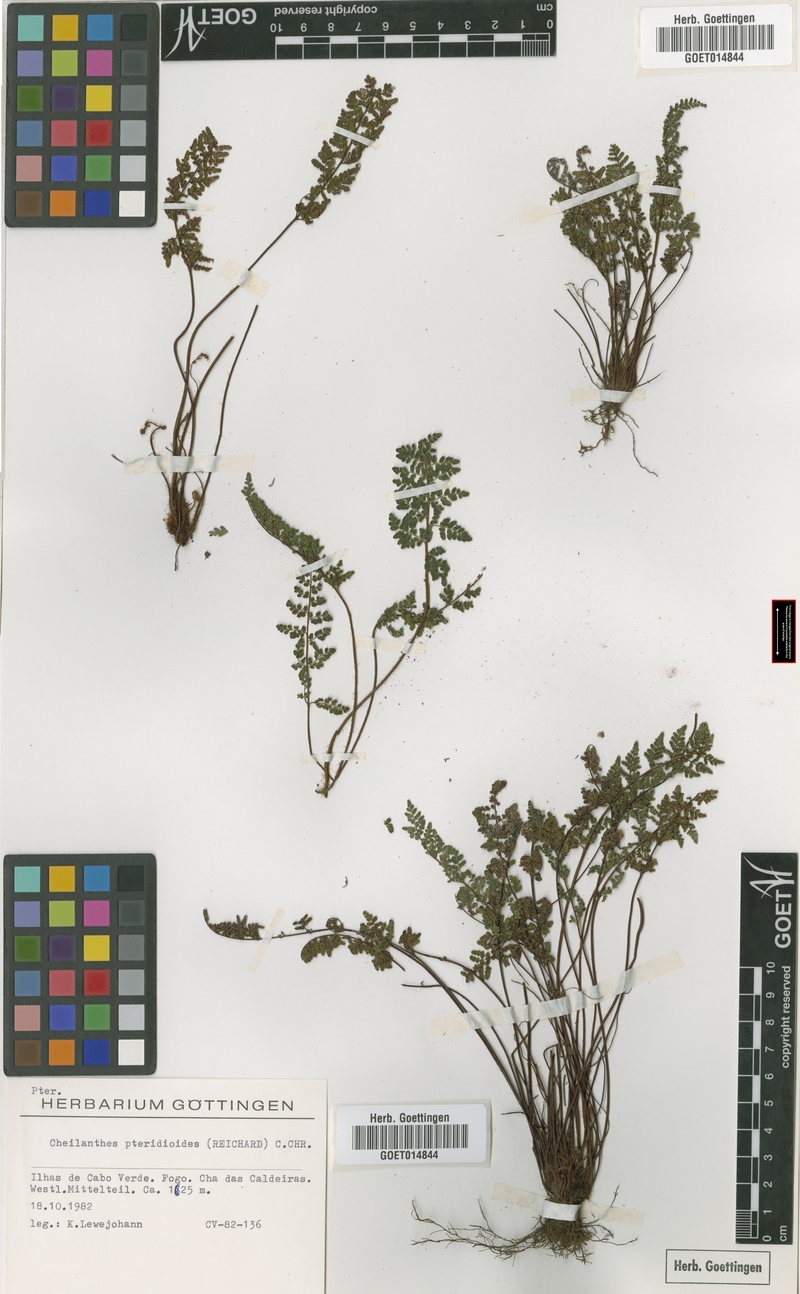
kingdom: Plantae
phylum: Tracheophyta
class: Polypodiopsida
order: Polypodiales
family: Pteridaceae
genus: Oeosporangium
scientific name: Oeosporangium pteridioides
